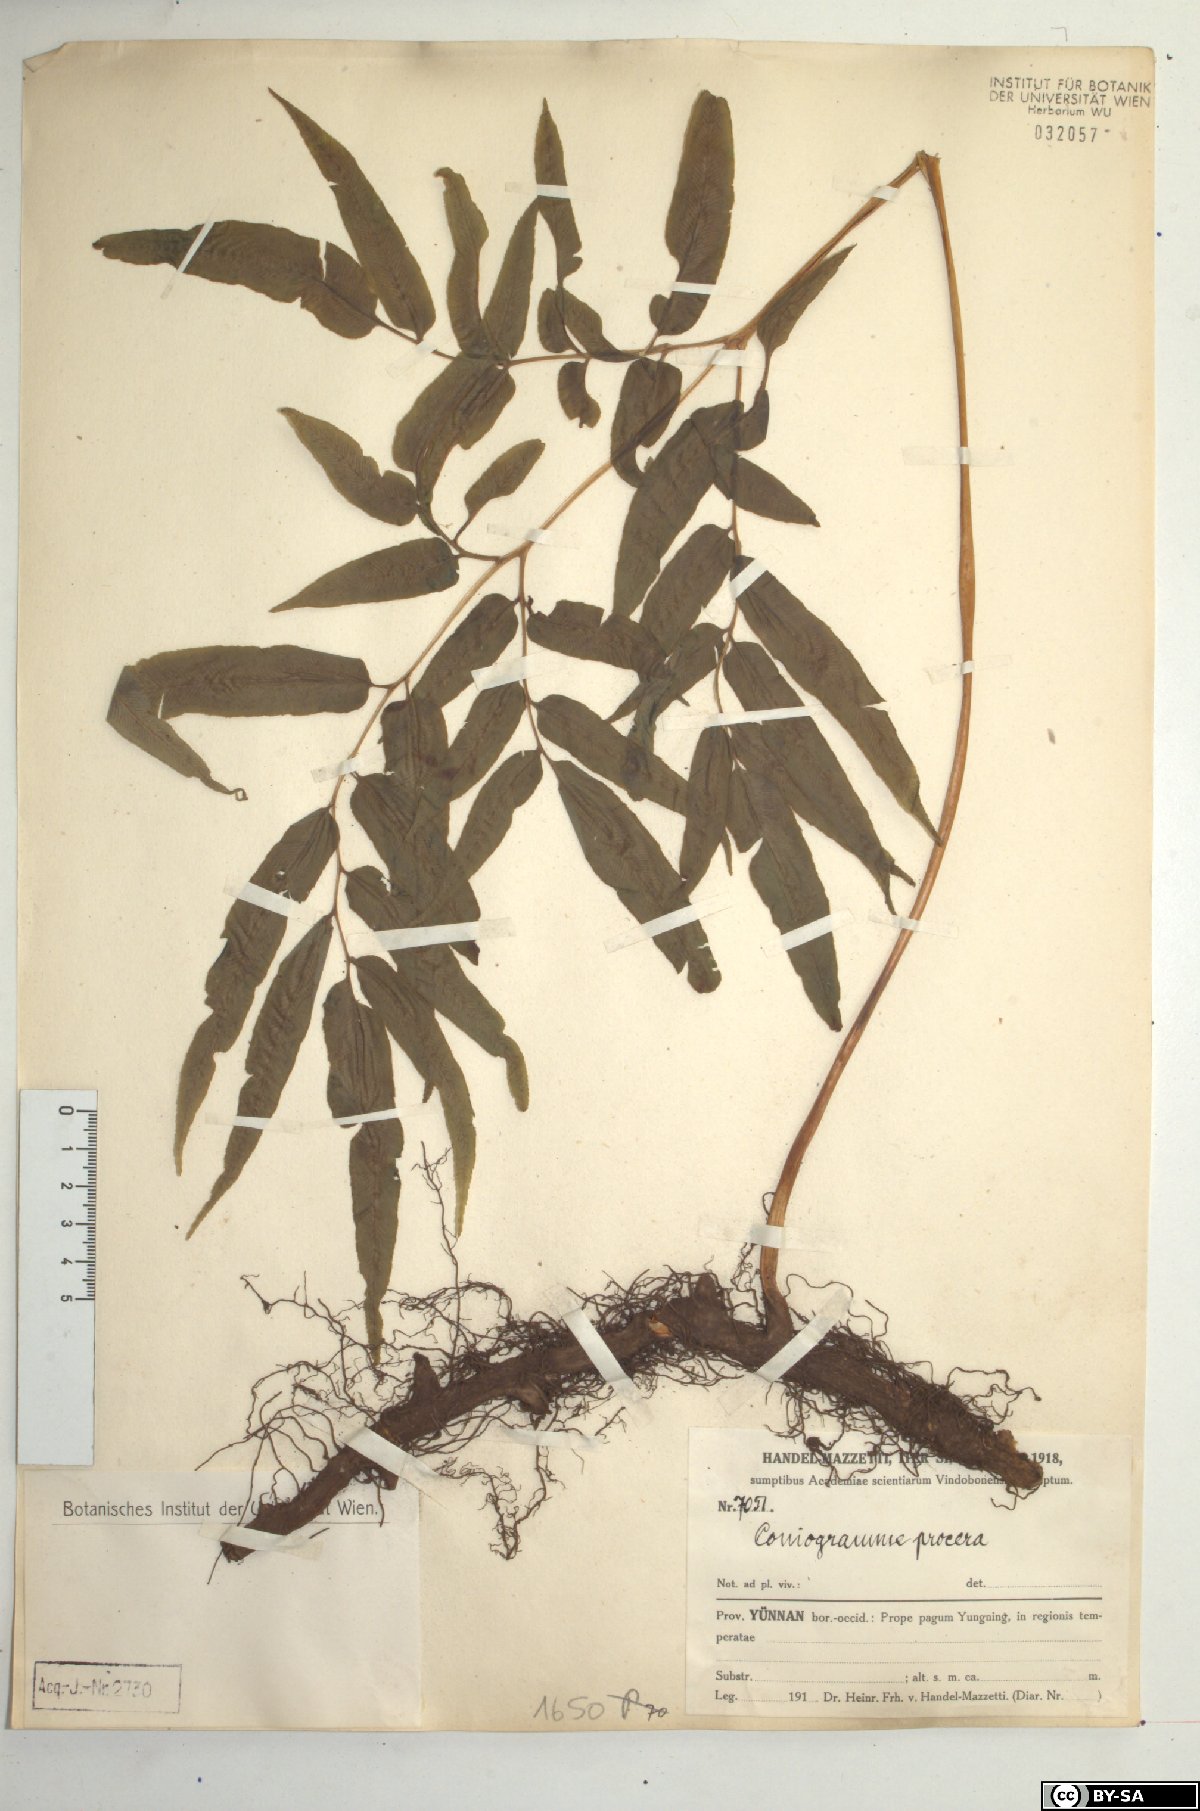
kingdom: Plantae
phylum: Tracheophyta
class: Polypodiopsida
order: Polypodiales
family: Pteridaceae
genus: Coniogramme
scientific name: Coniogramme procera
